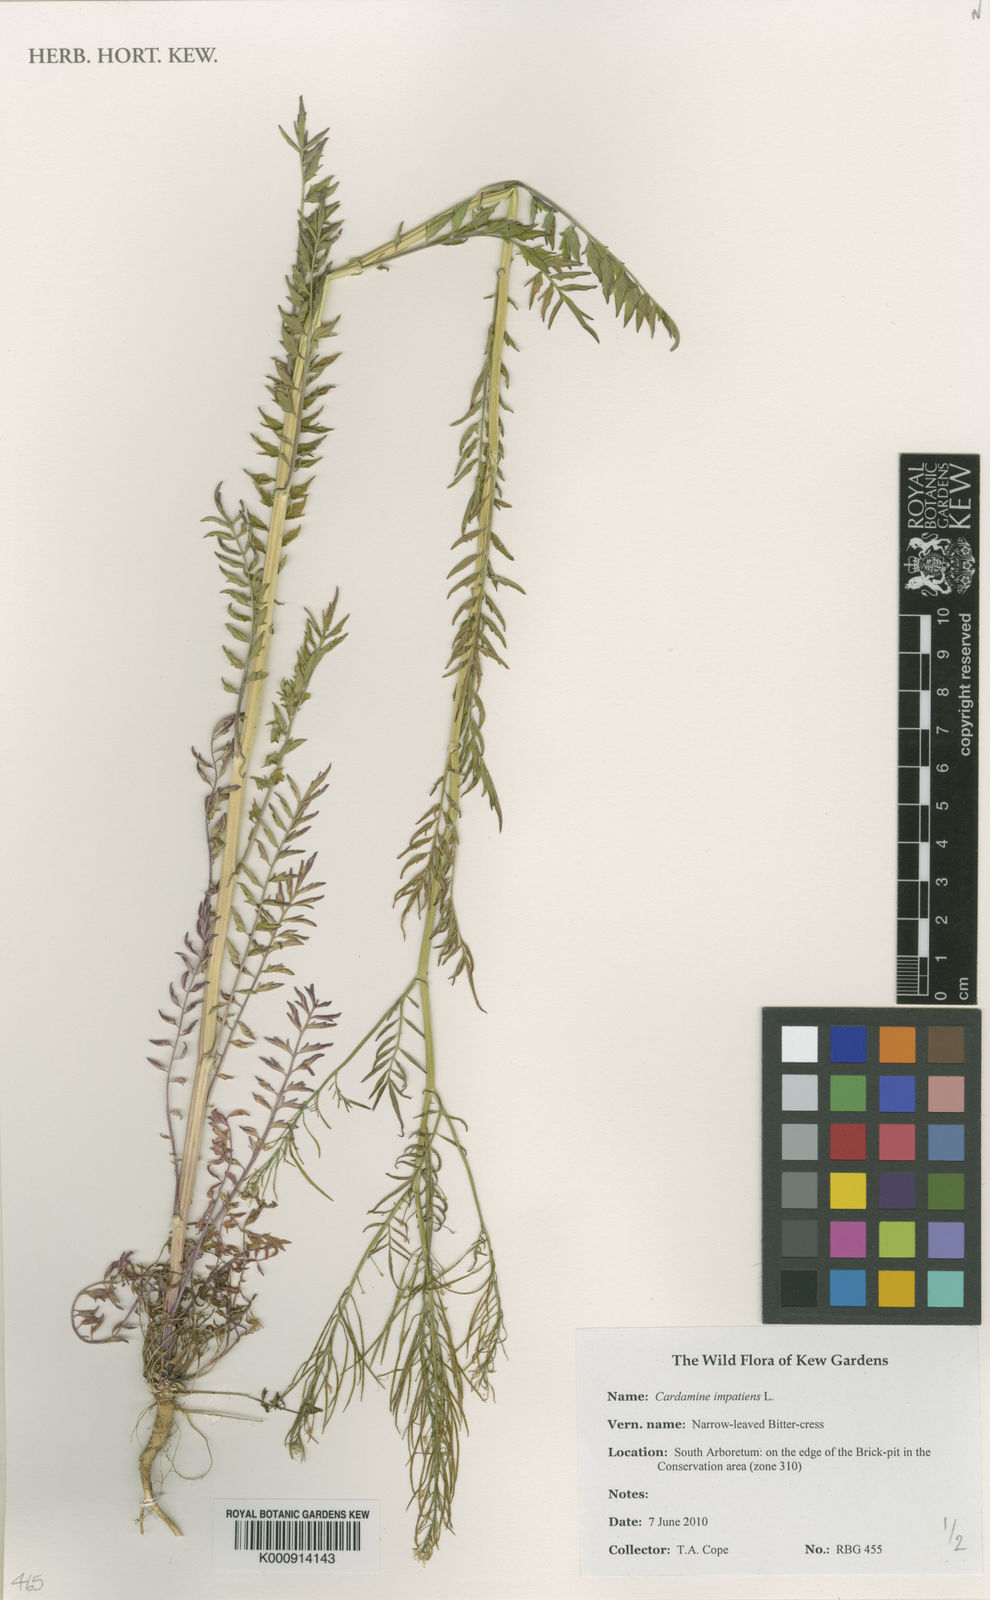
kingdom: Plantae
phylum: Tracheophyta
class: Magnoliopsida
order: Brassicales
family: Brassicaceae
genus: Cardamine
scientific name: Cardamine impatiens
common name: Narrow-leaved bitter-cress
